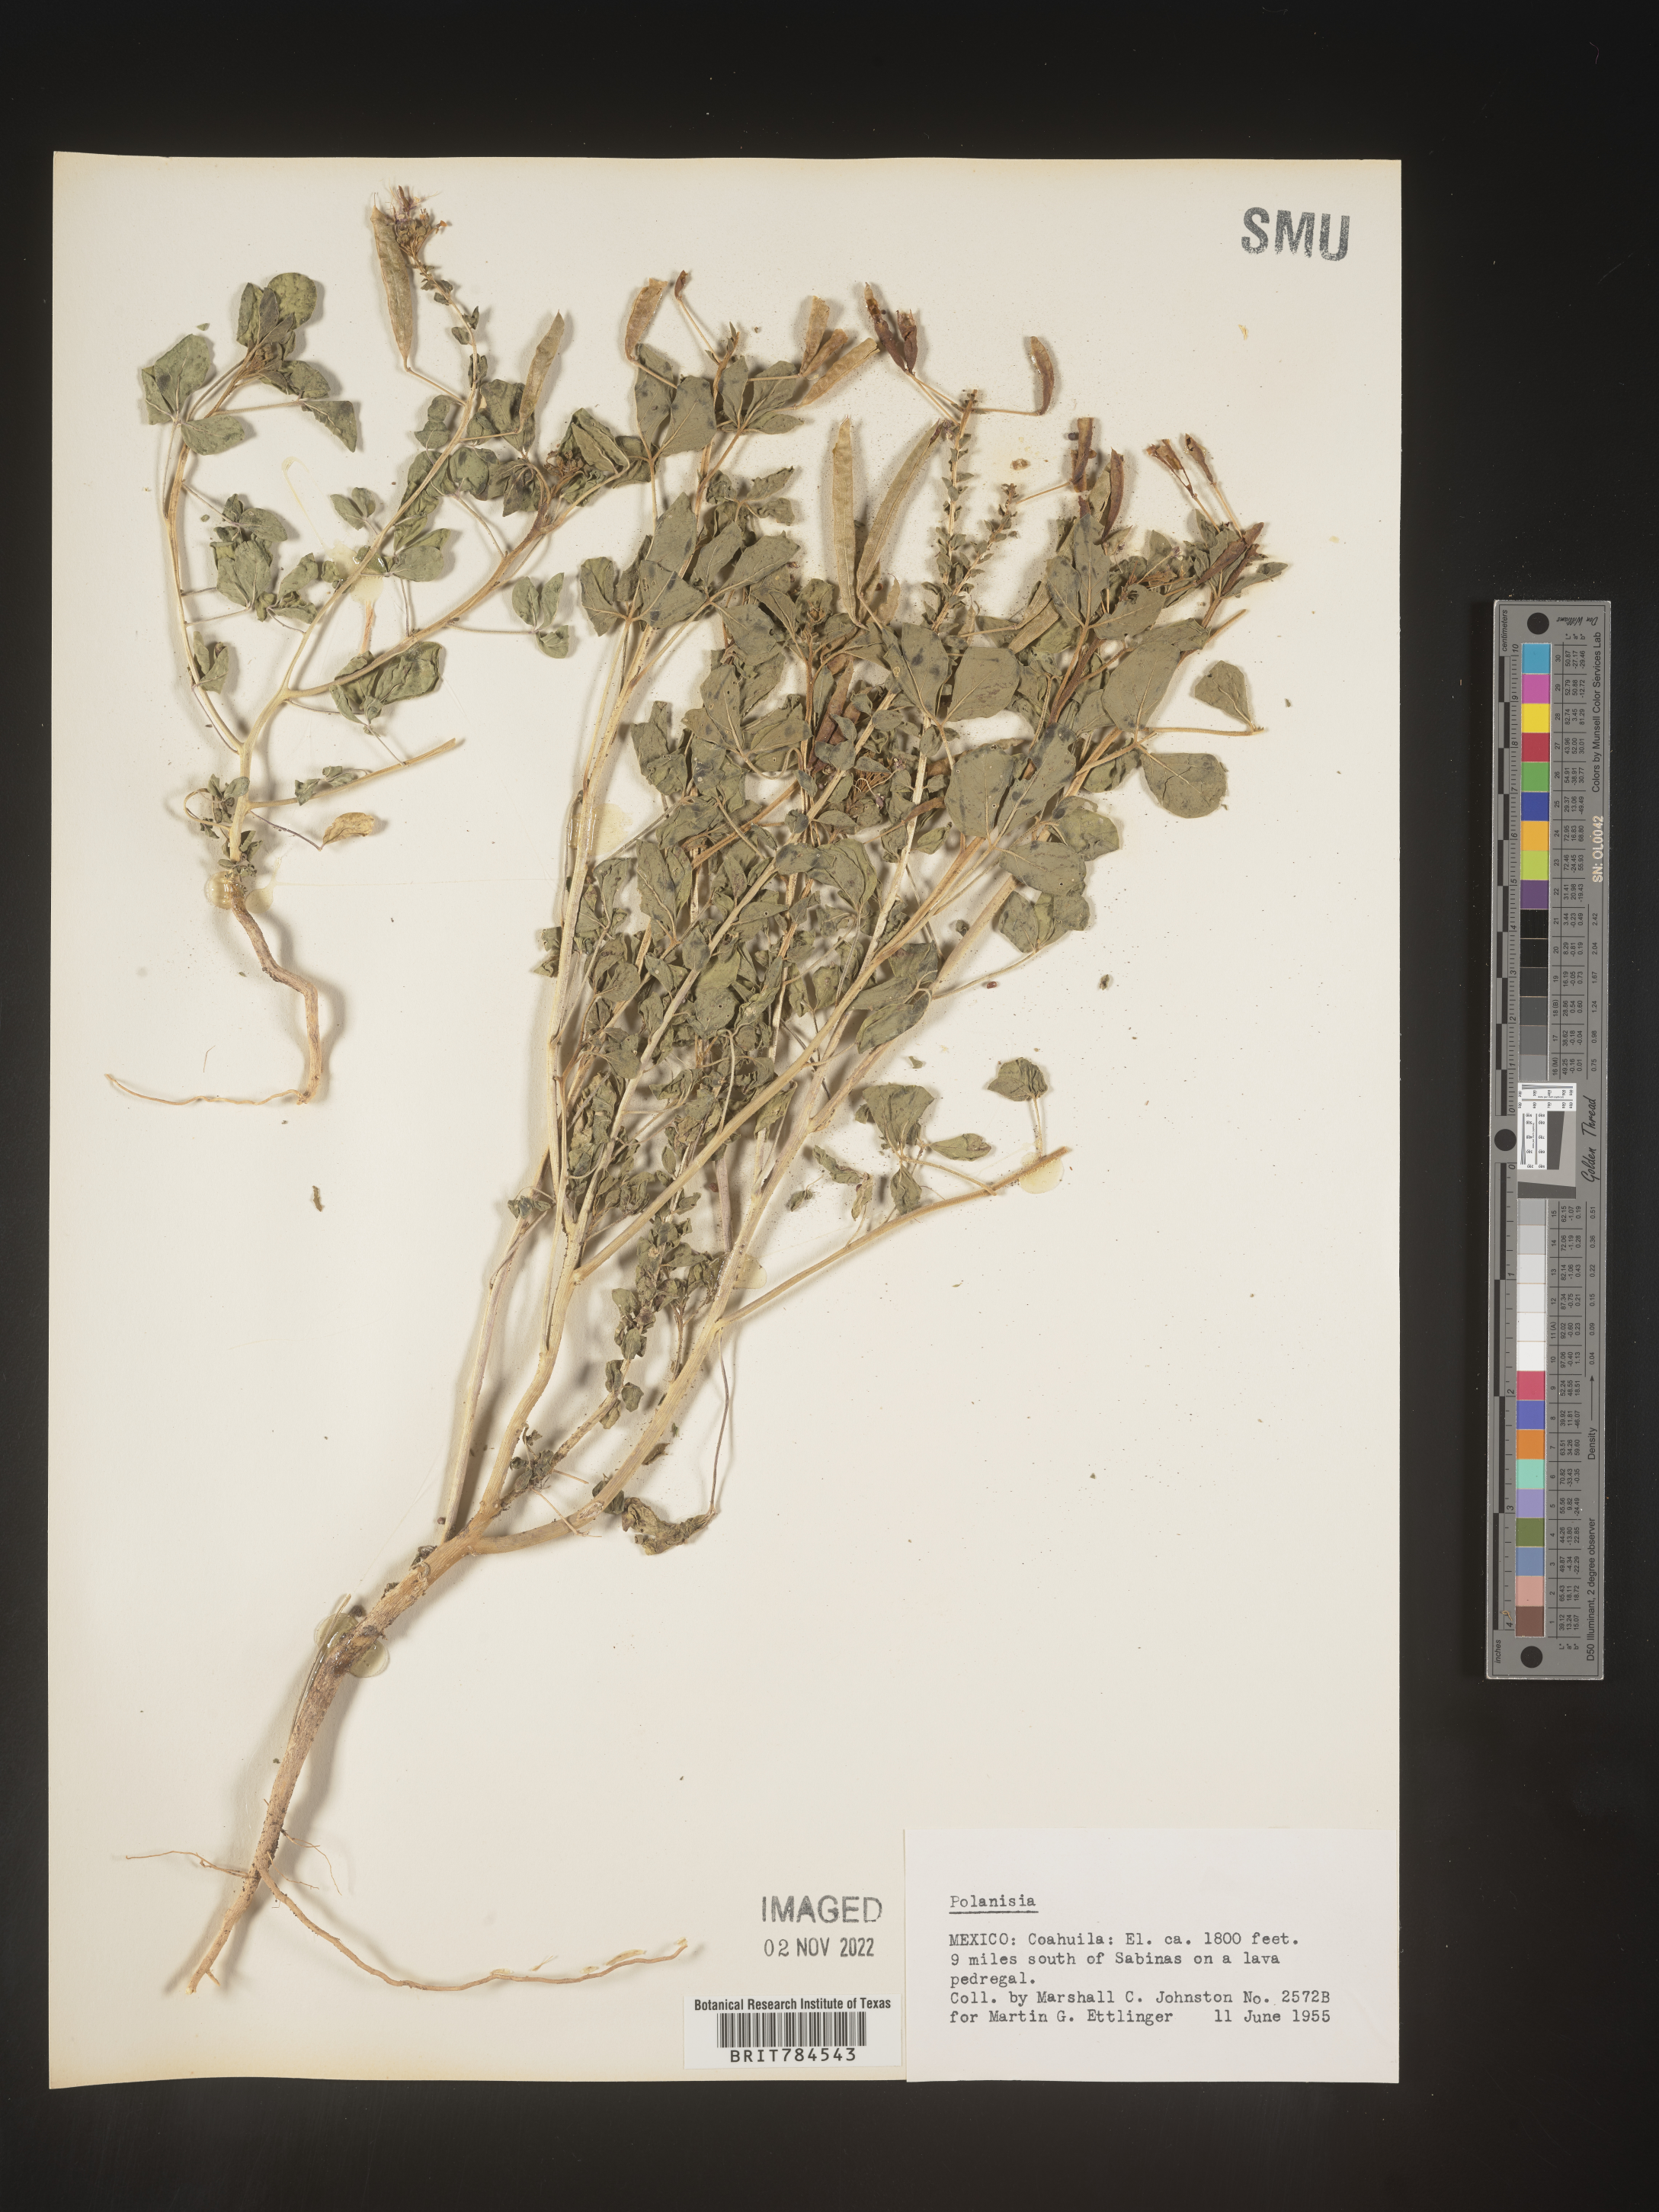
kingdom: Plantae
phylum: Tracheophyta
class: Magnoliopsida
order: Brassicales
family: Cleomaceae
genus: Polanisia
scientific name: Polanisia
